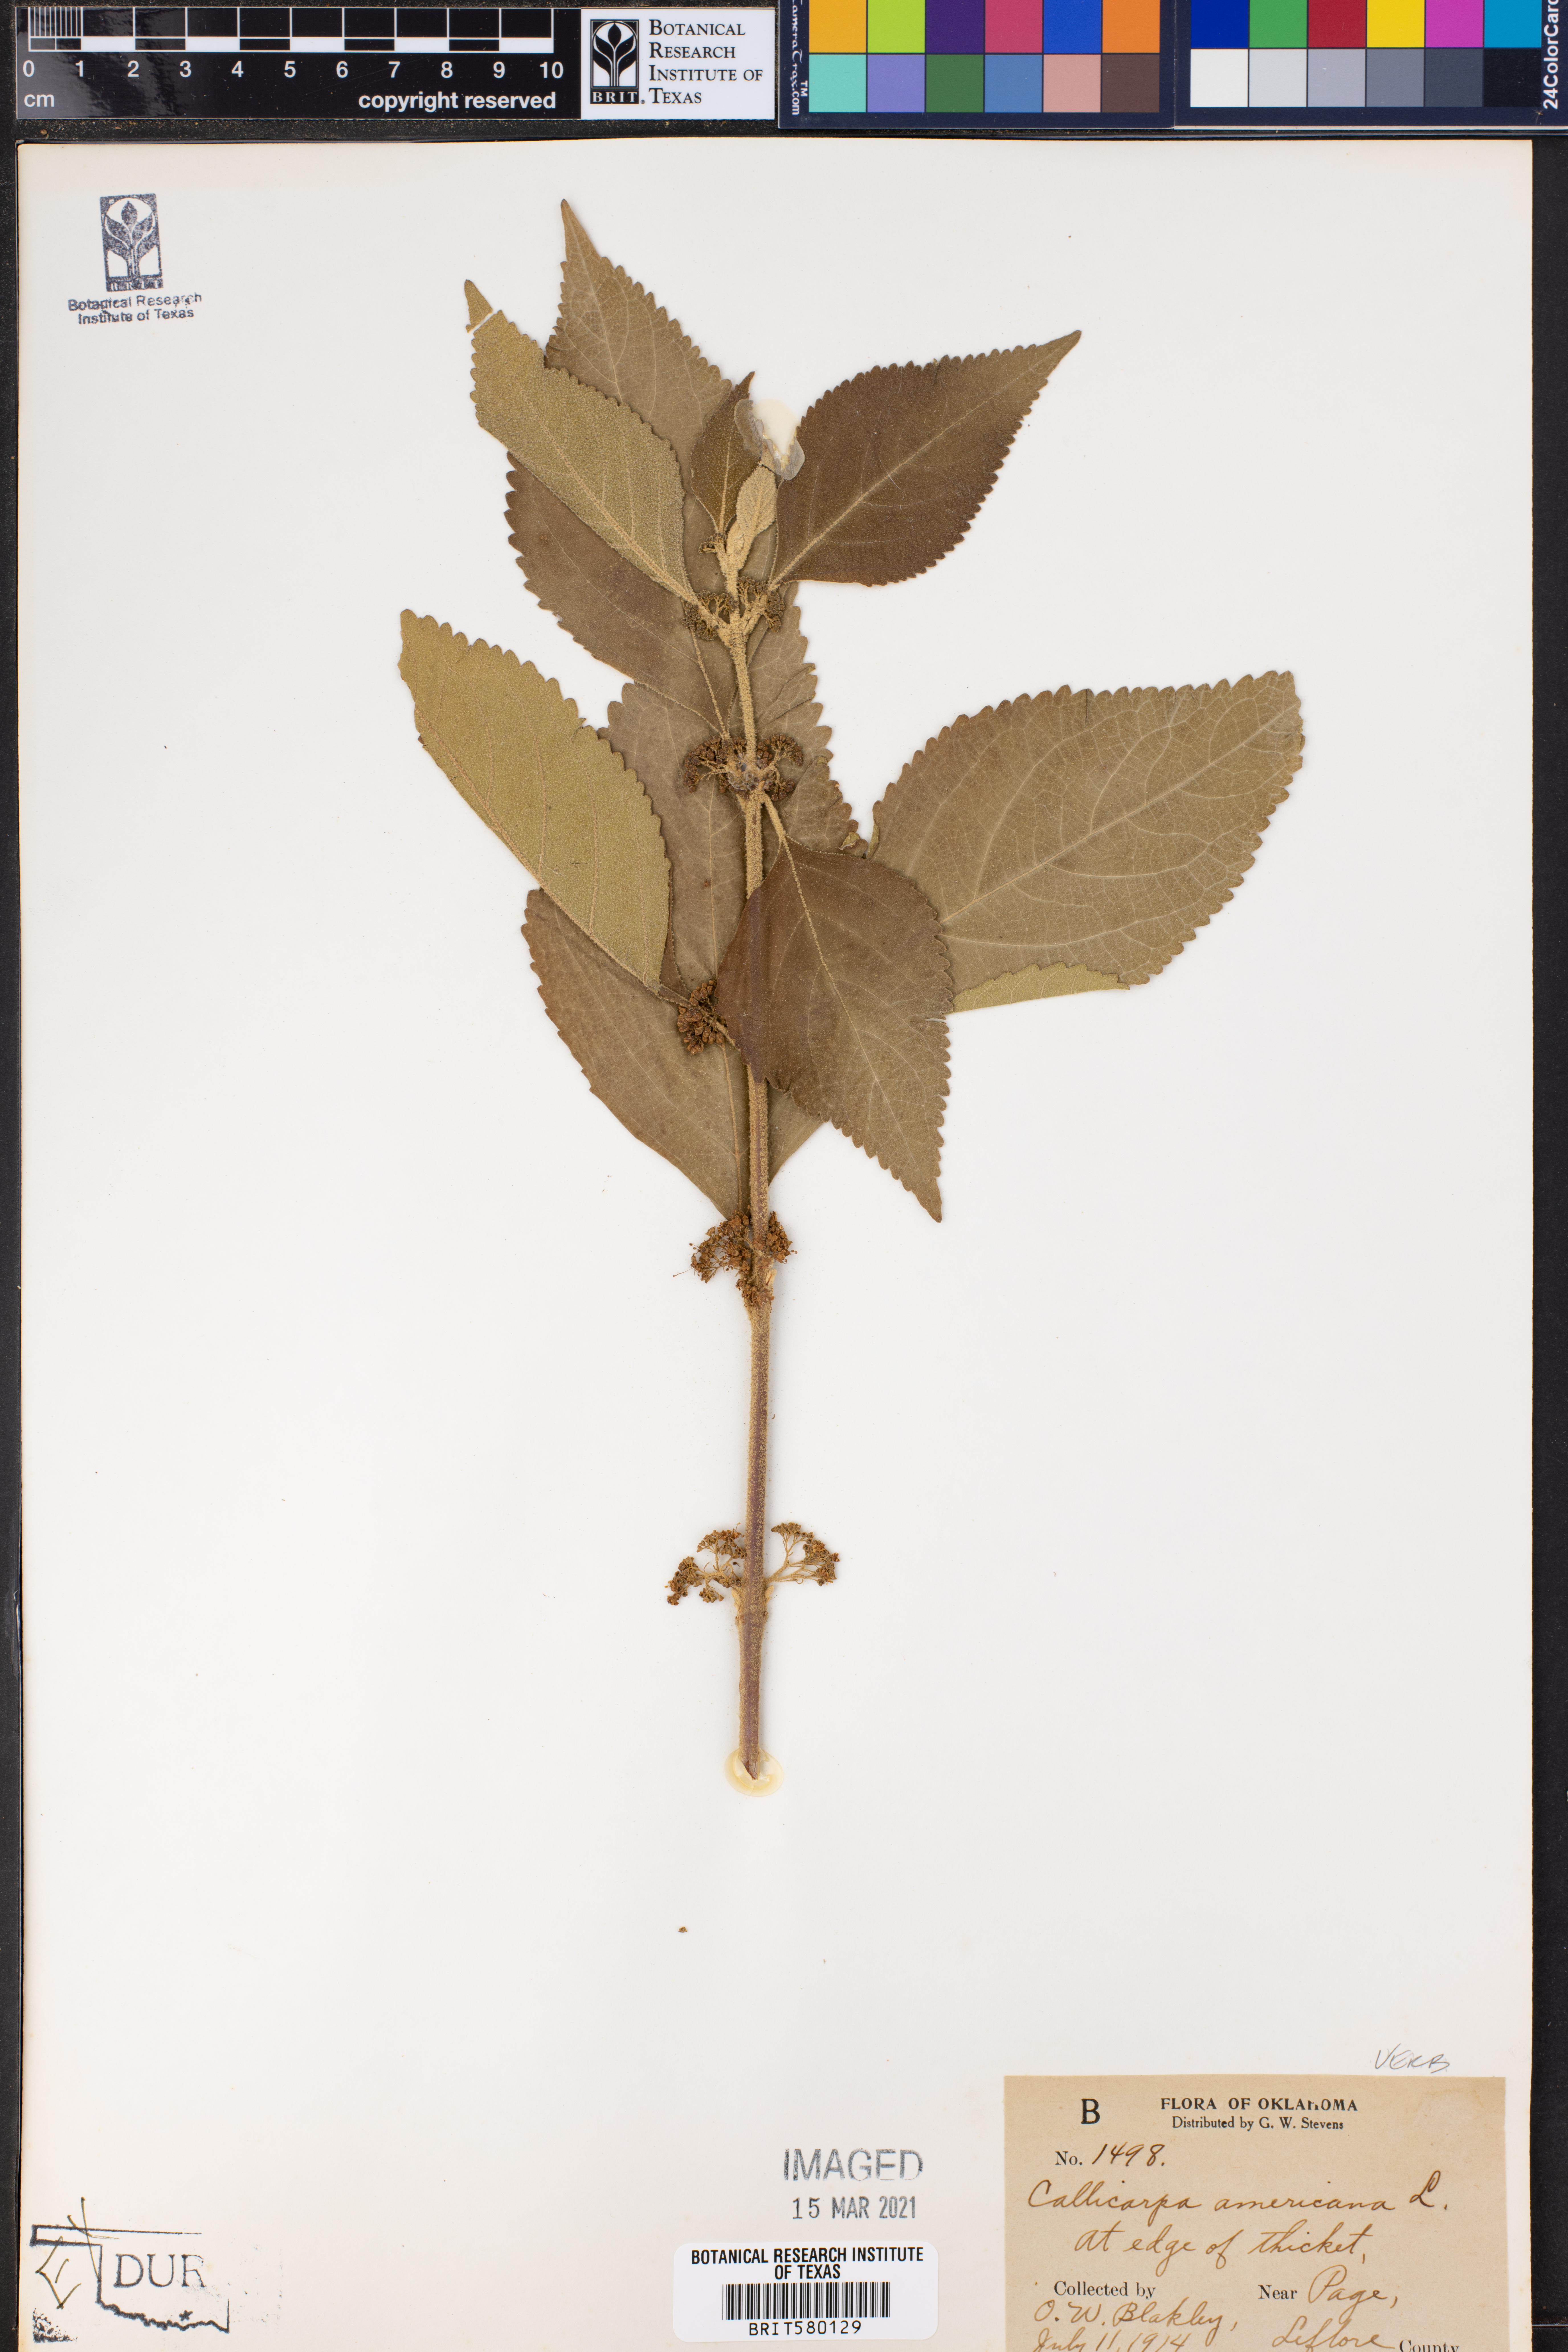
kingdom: Plantae
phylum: Tracheophyta
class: Magnoliopsida
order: Lamiales
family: Lamiaceae
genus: Callicarpa
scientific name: Callicarpa americana
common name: American beautyberry
